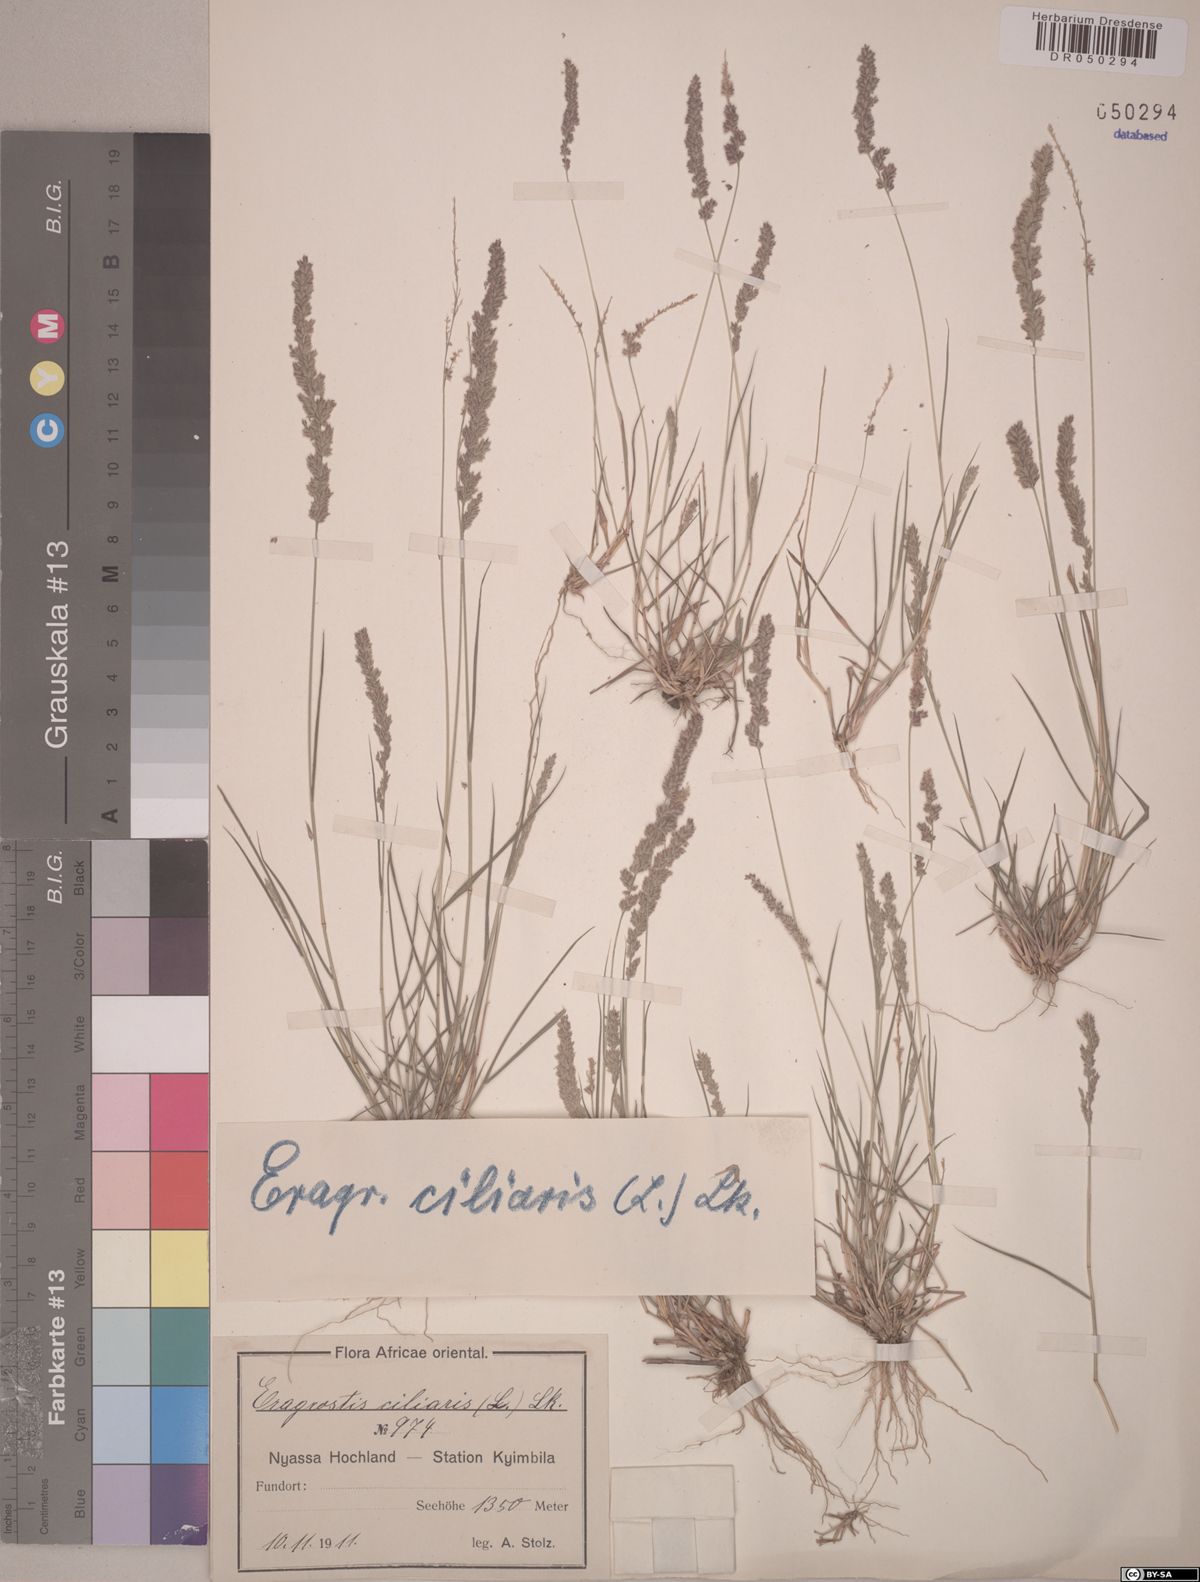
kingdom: Plantae
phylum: Tracheophyta
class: Liliopsida
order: Poales
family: Poaceae
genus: Eragrostis
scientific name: Eragrostis ciliaris
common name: Gophertail lovegrass
